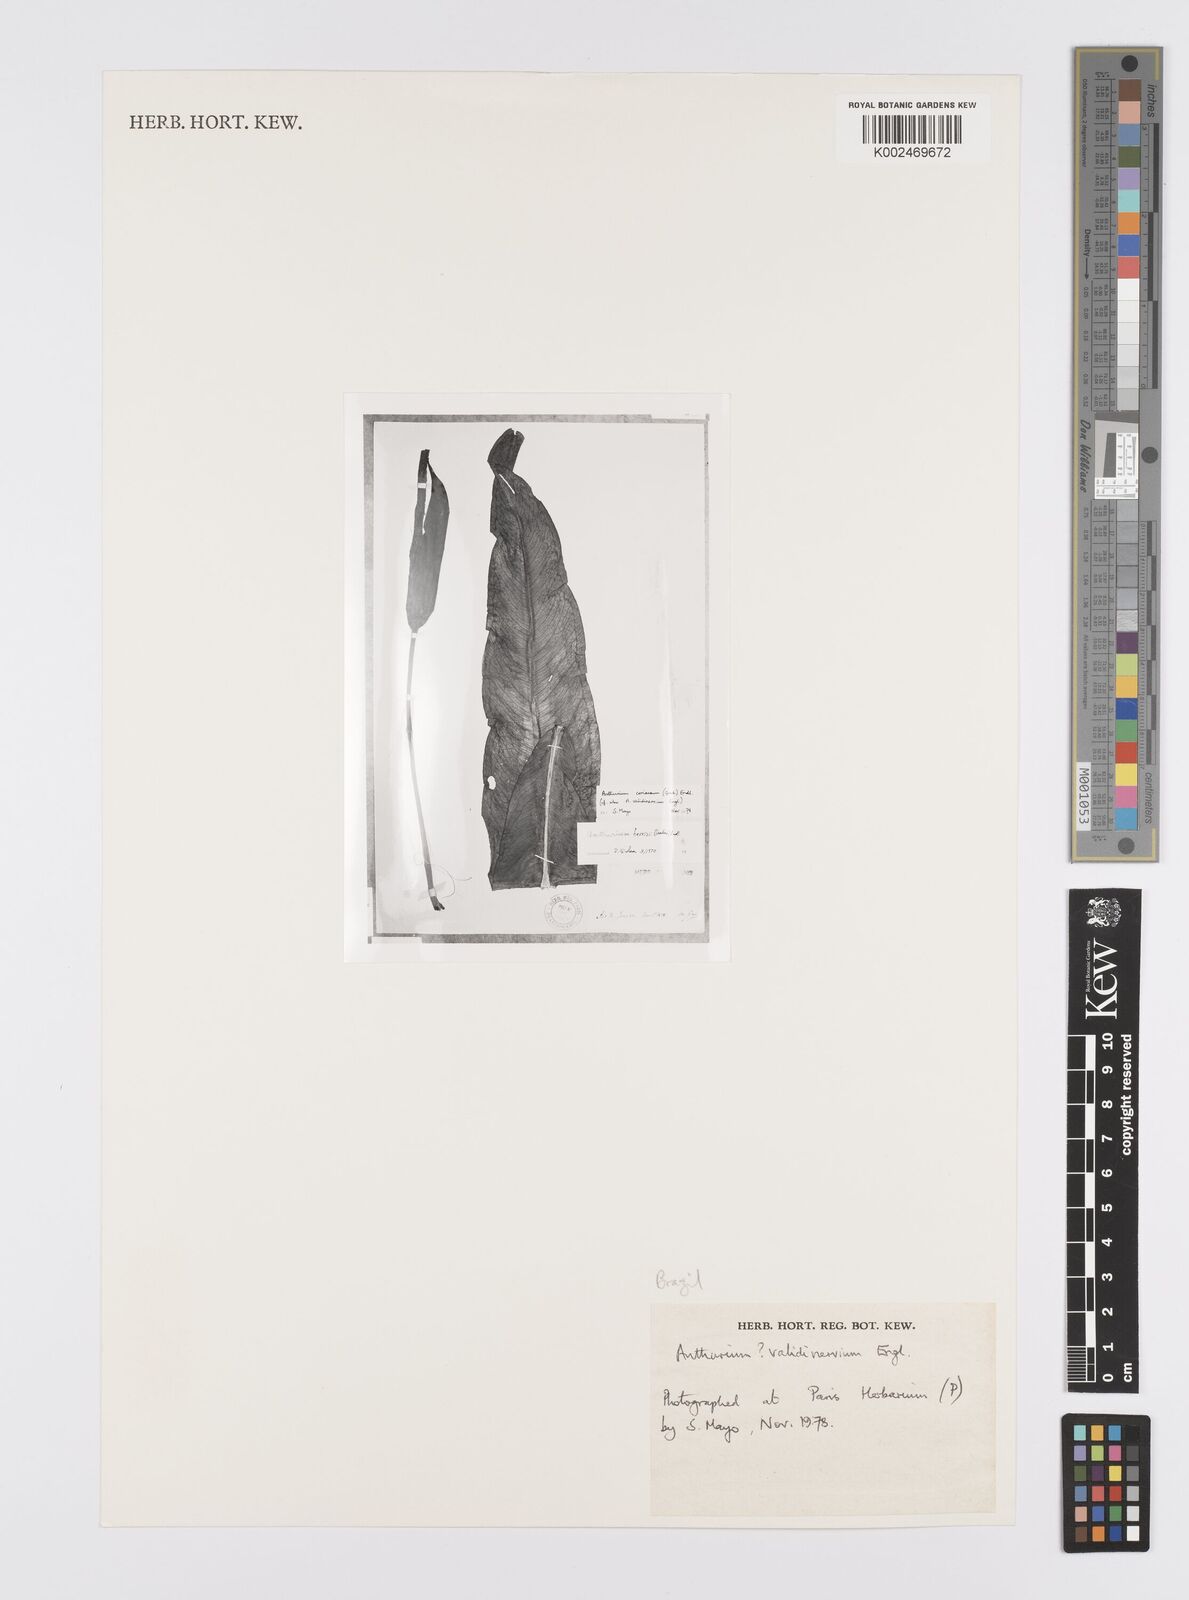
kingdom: Plantae
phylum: Tracheophyta
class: Liliopsida
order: Alismatales
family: Araceae
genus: Anthurium
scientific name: Anthurium validinervium
